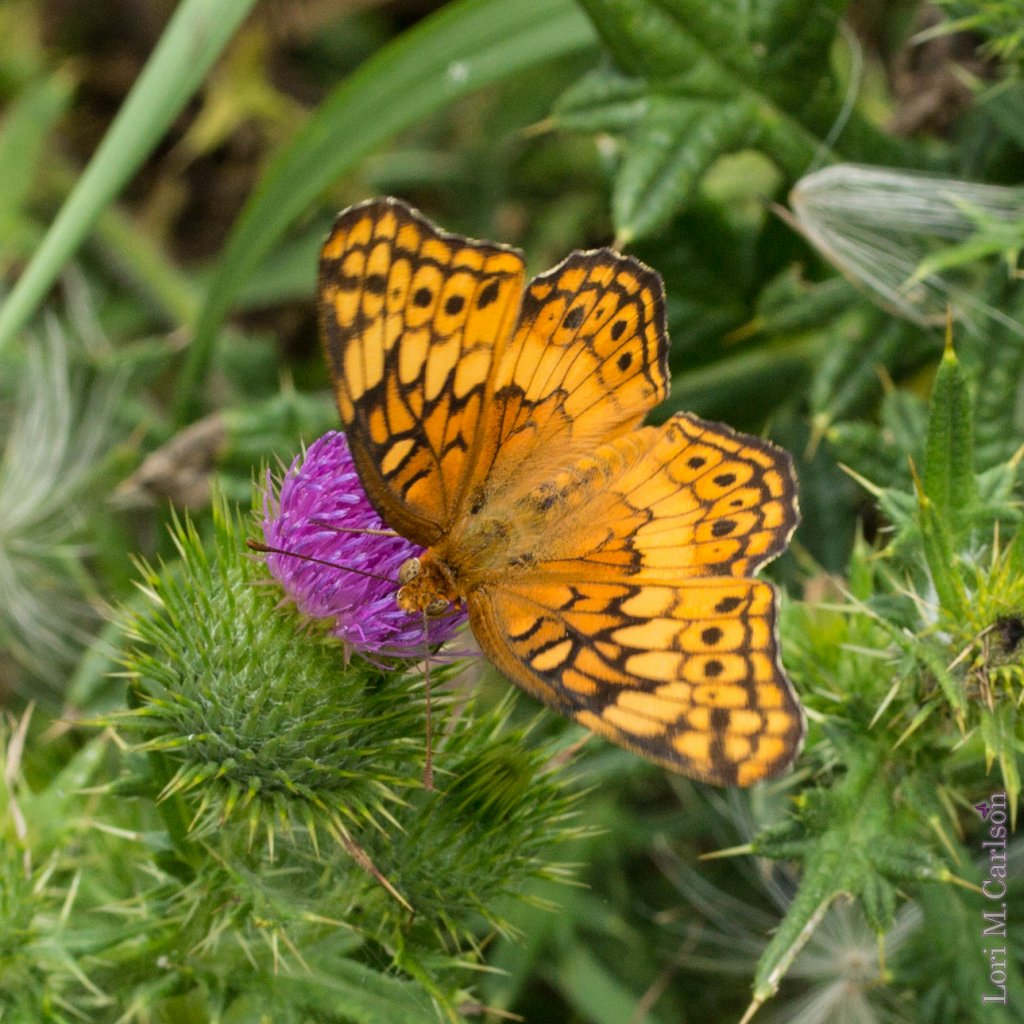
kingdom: Animalia
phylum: Arthropoda
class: Insecta
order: Lepidoptera
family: Nymphalidae
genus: Euptoieta
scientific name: Euptoieta claudia
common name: Variegated Fritillary
